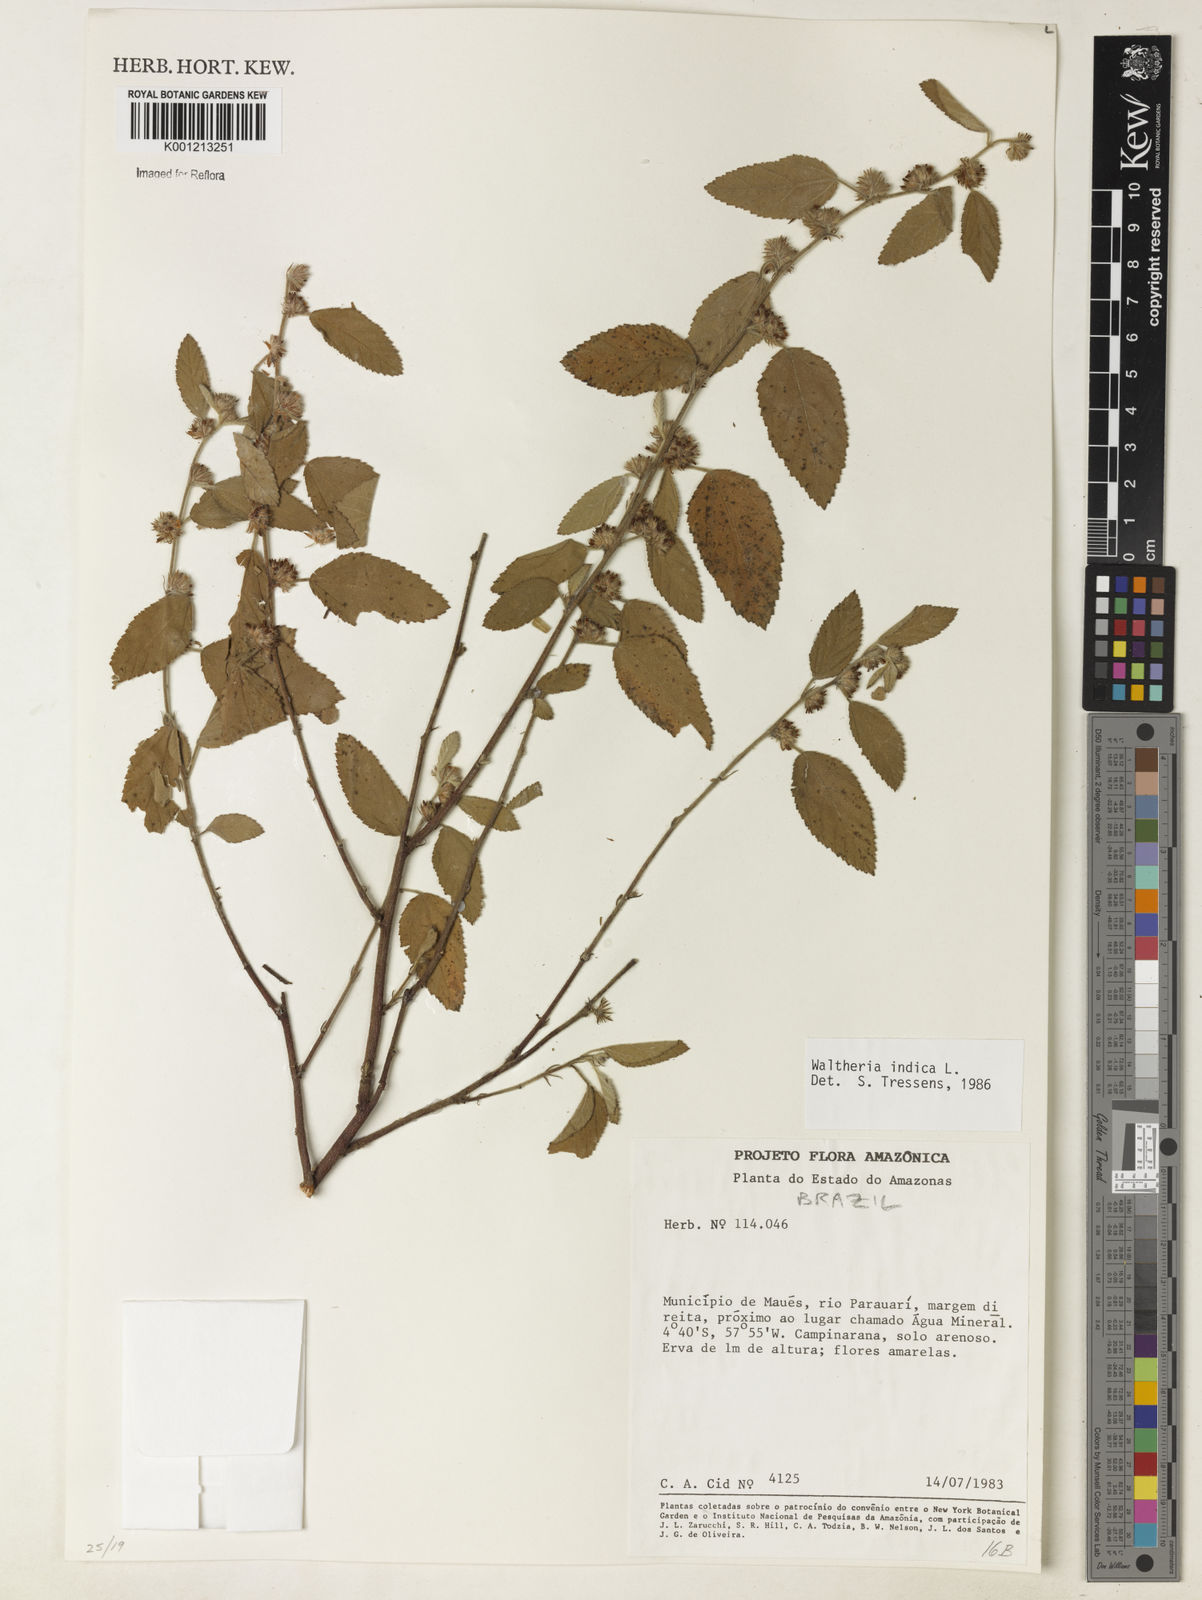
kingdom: Plantae
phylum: Tracheophyta
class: Magnoliopsida
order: Malvales
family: Malvaceae
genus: Waltheria
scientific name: Waltheria indica
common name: Leather-coat
